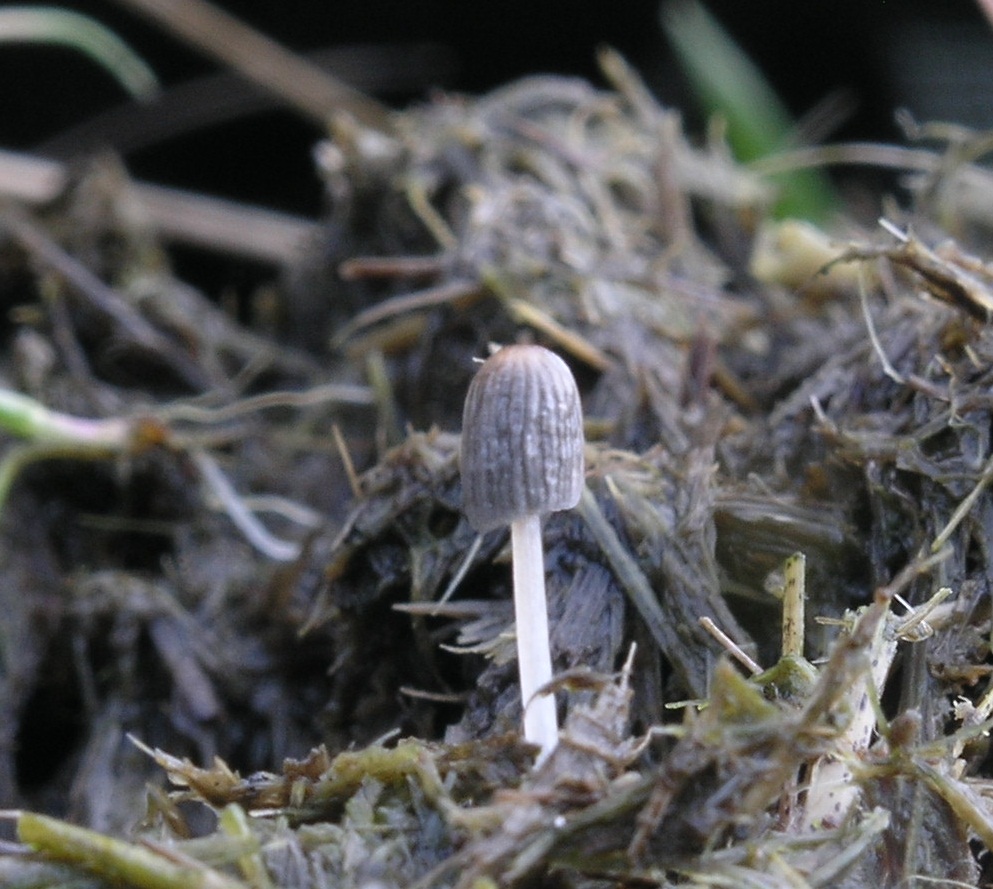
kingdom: Fungi
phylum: Basidiomycota
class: Agaricomycetes
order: Agaricales
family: Psathyrellaceae
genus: Parasola
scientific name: Parasola misera
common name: lillebitte hjulhat
